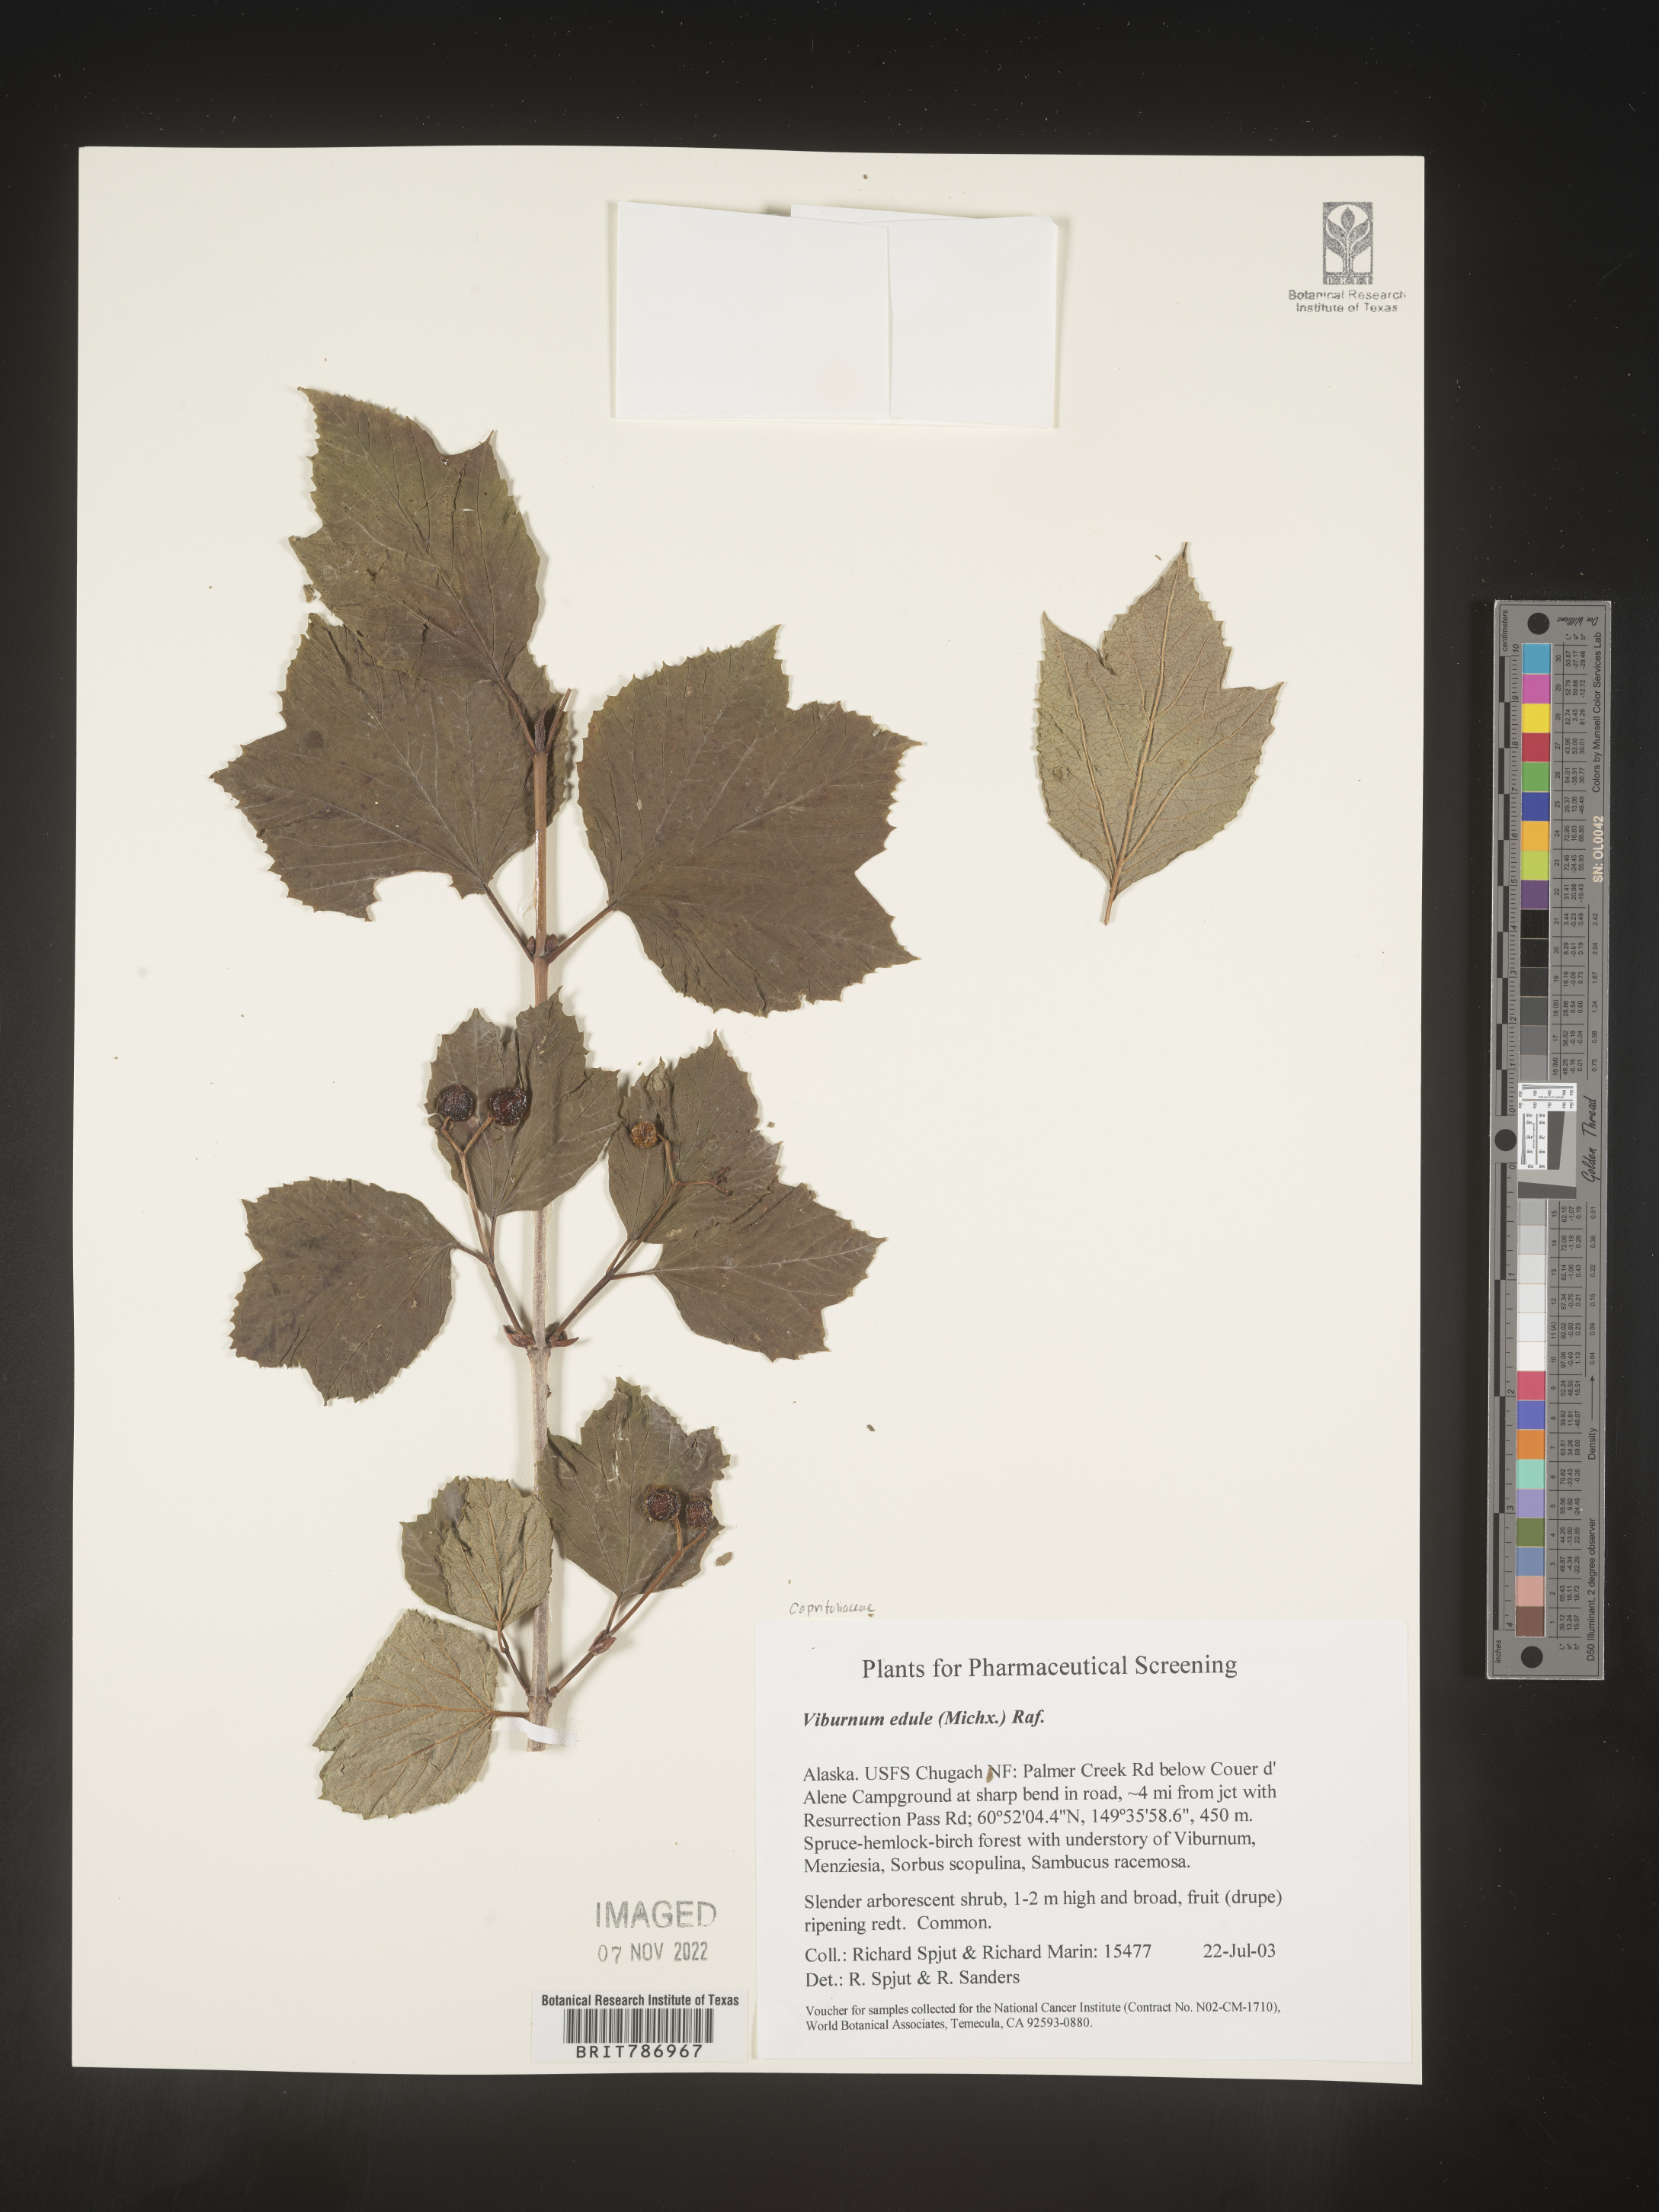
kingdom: Plantae
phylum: Tracheophyta
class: Magnoliopsida
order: Dipsacales
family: Viburnaceae
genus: Viburnum
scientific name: Viburnum edule
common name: Mooseberry
